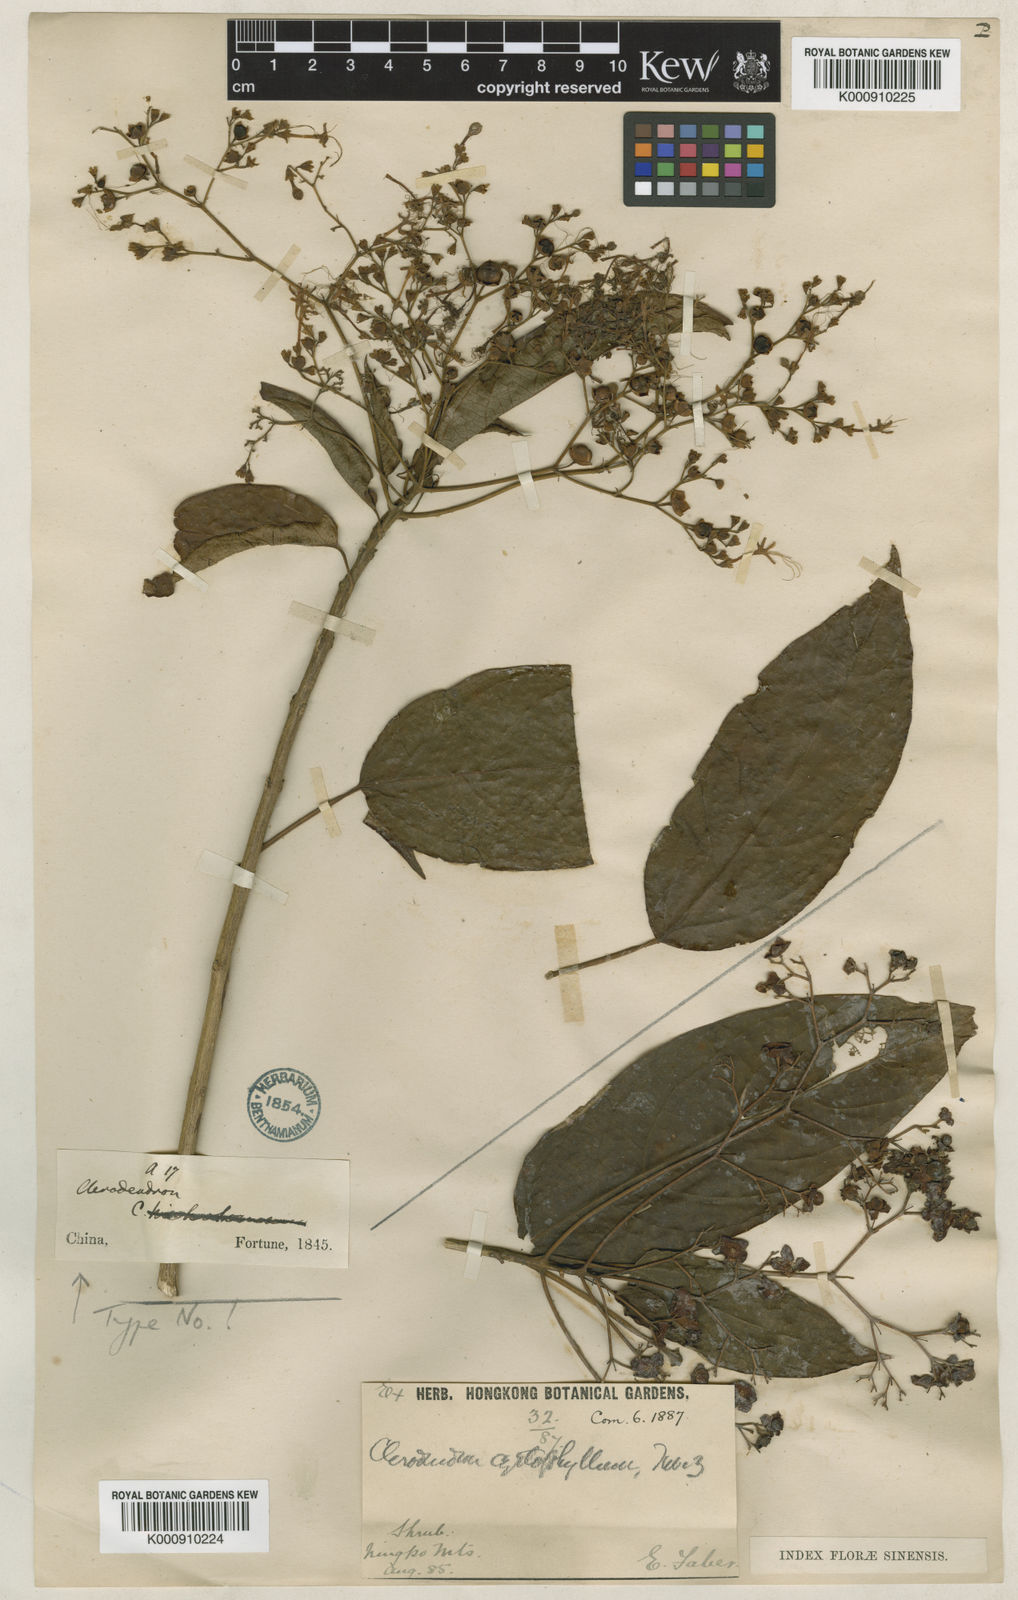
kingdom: Plantae
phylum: Tracheophyta
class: Magnoliopsida
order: Lamiales
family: Lamiaceae
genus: Clerodendrum
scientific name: Clerodendrum cyrtophyllum
